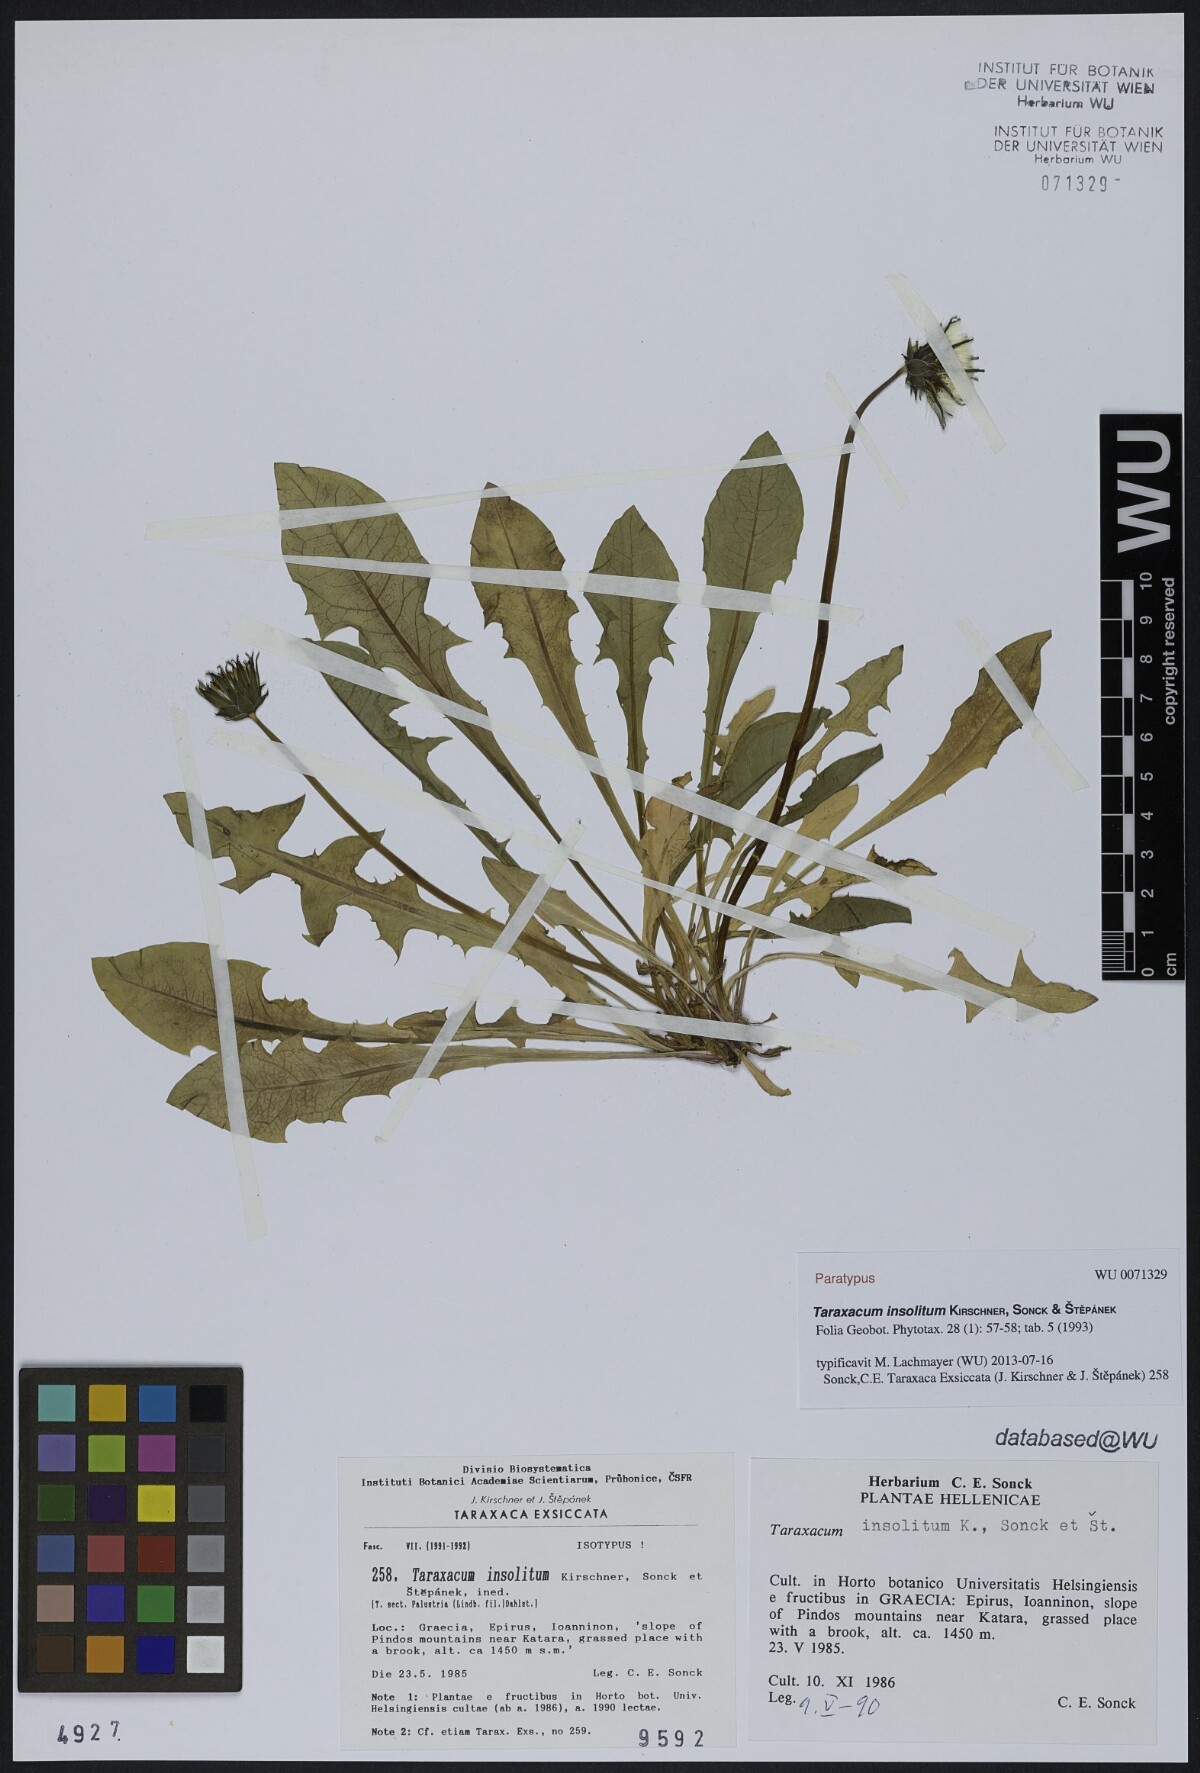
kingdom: Plantae
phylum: Tracheophyta
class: Magnoliopsida
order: Asterales
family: Asteraceae
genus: Taraxacum
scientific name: Taraxacum insolitum
